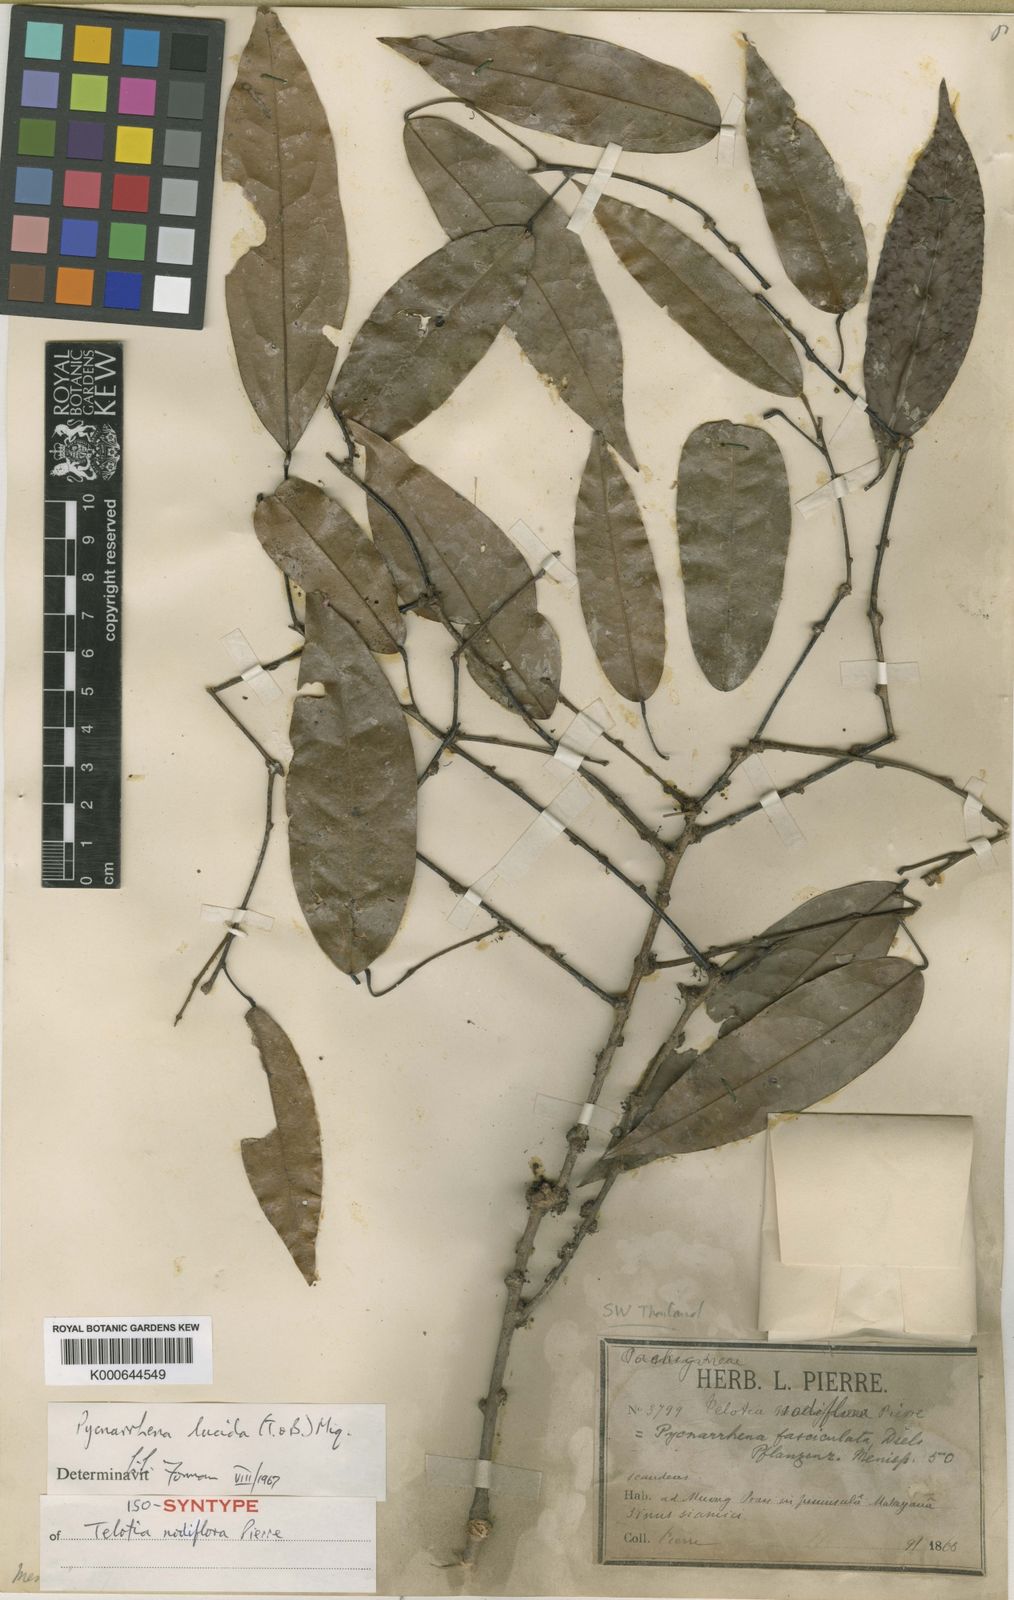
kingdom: Plantae
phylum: Tracheophyta
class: Magnoliopsida
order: Ranunculales
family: Menispermaceae
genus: Pycnarrhena
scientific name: Pycnarrhena lucida
